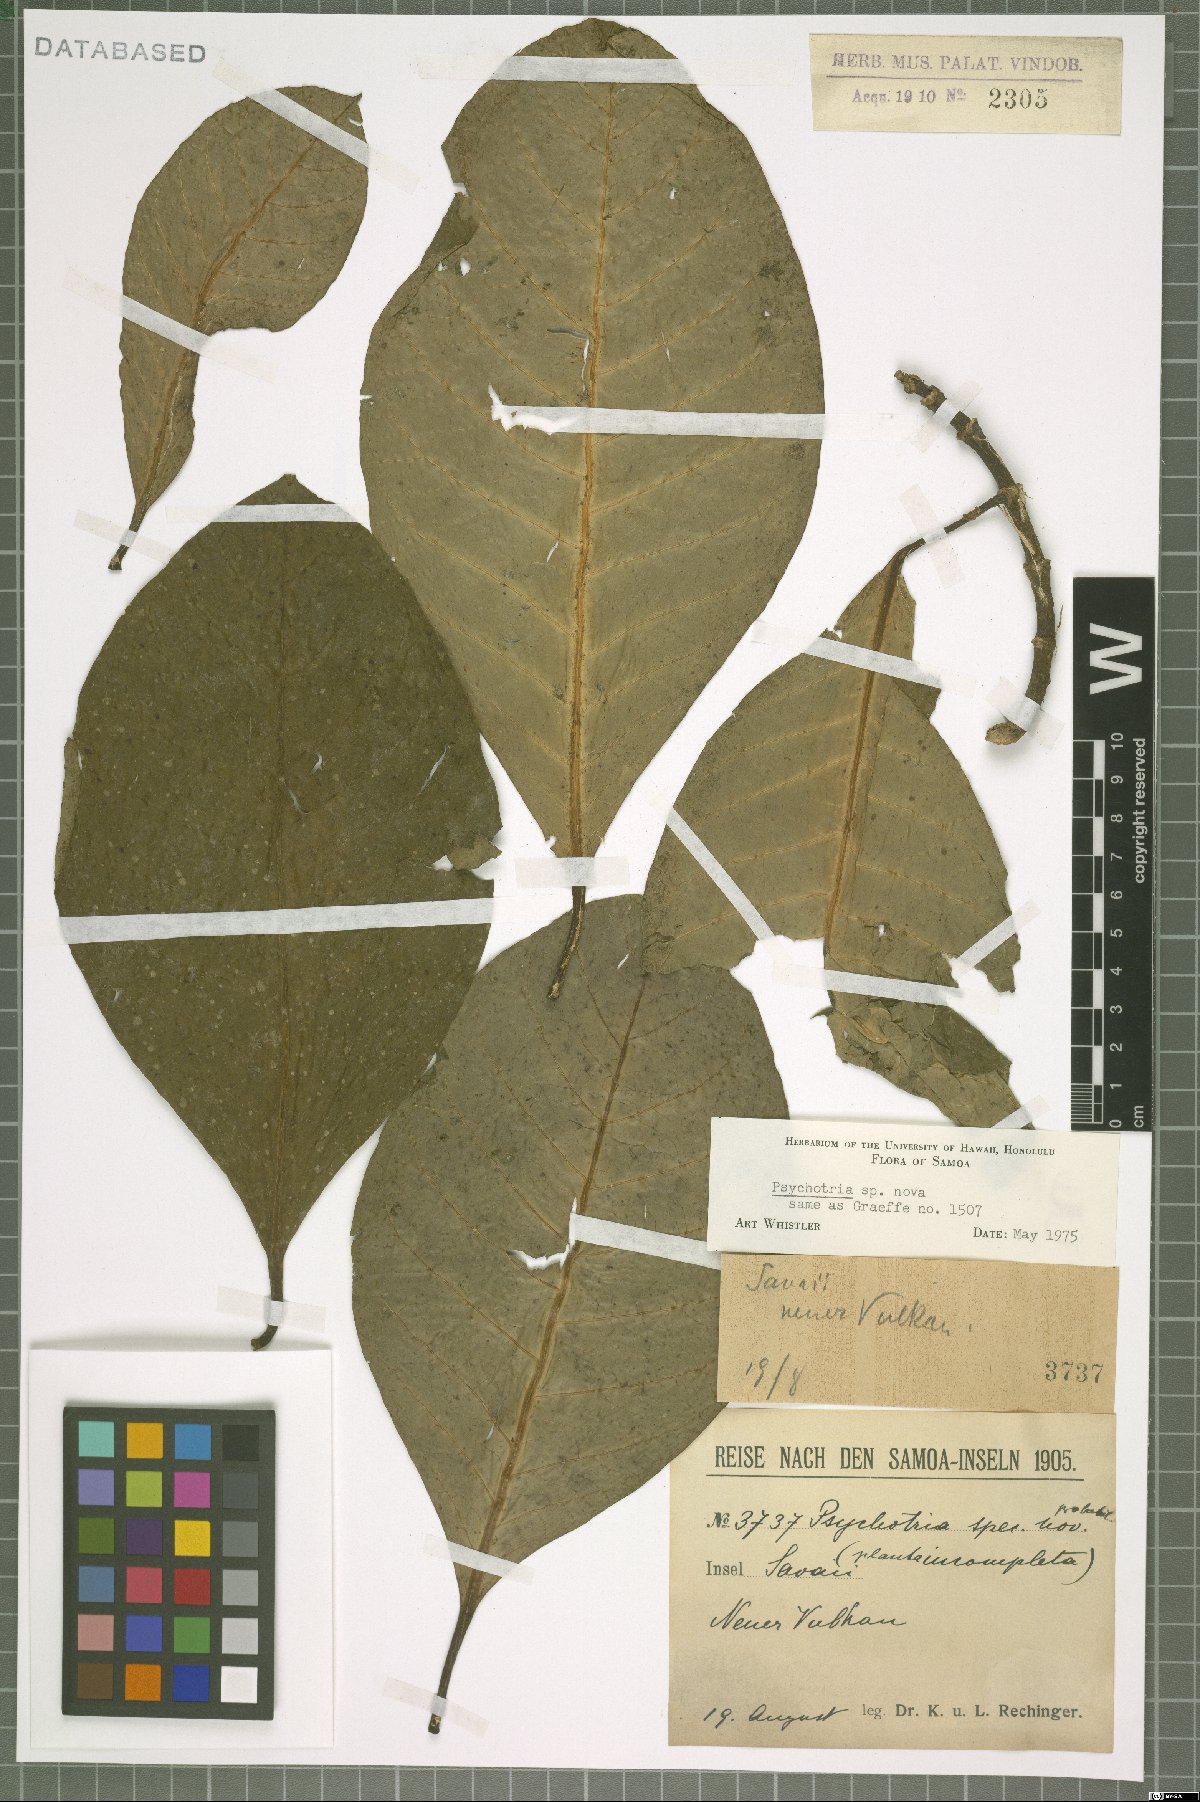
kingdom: Plantae
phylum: Tracheophyta
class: Magnoliopsida
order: Gentianales
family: Rubiaceae
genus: Eumachia
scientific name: Eumachia sclerocarpa
